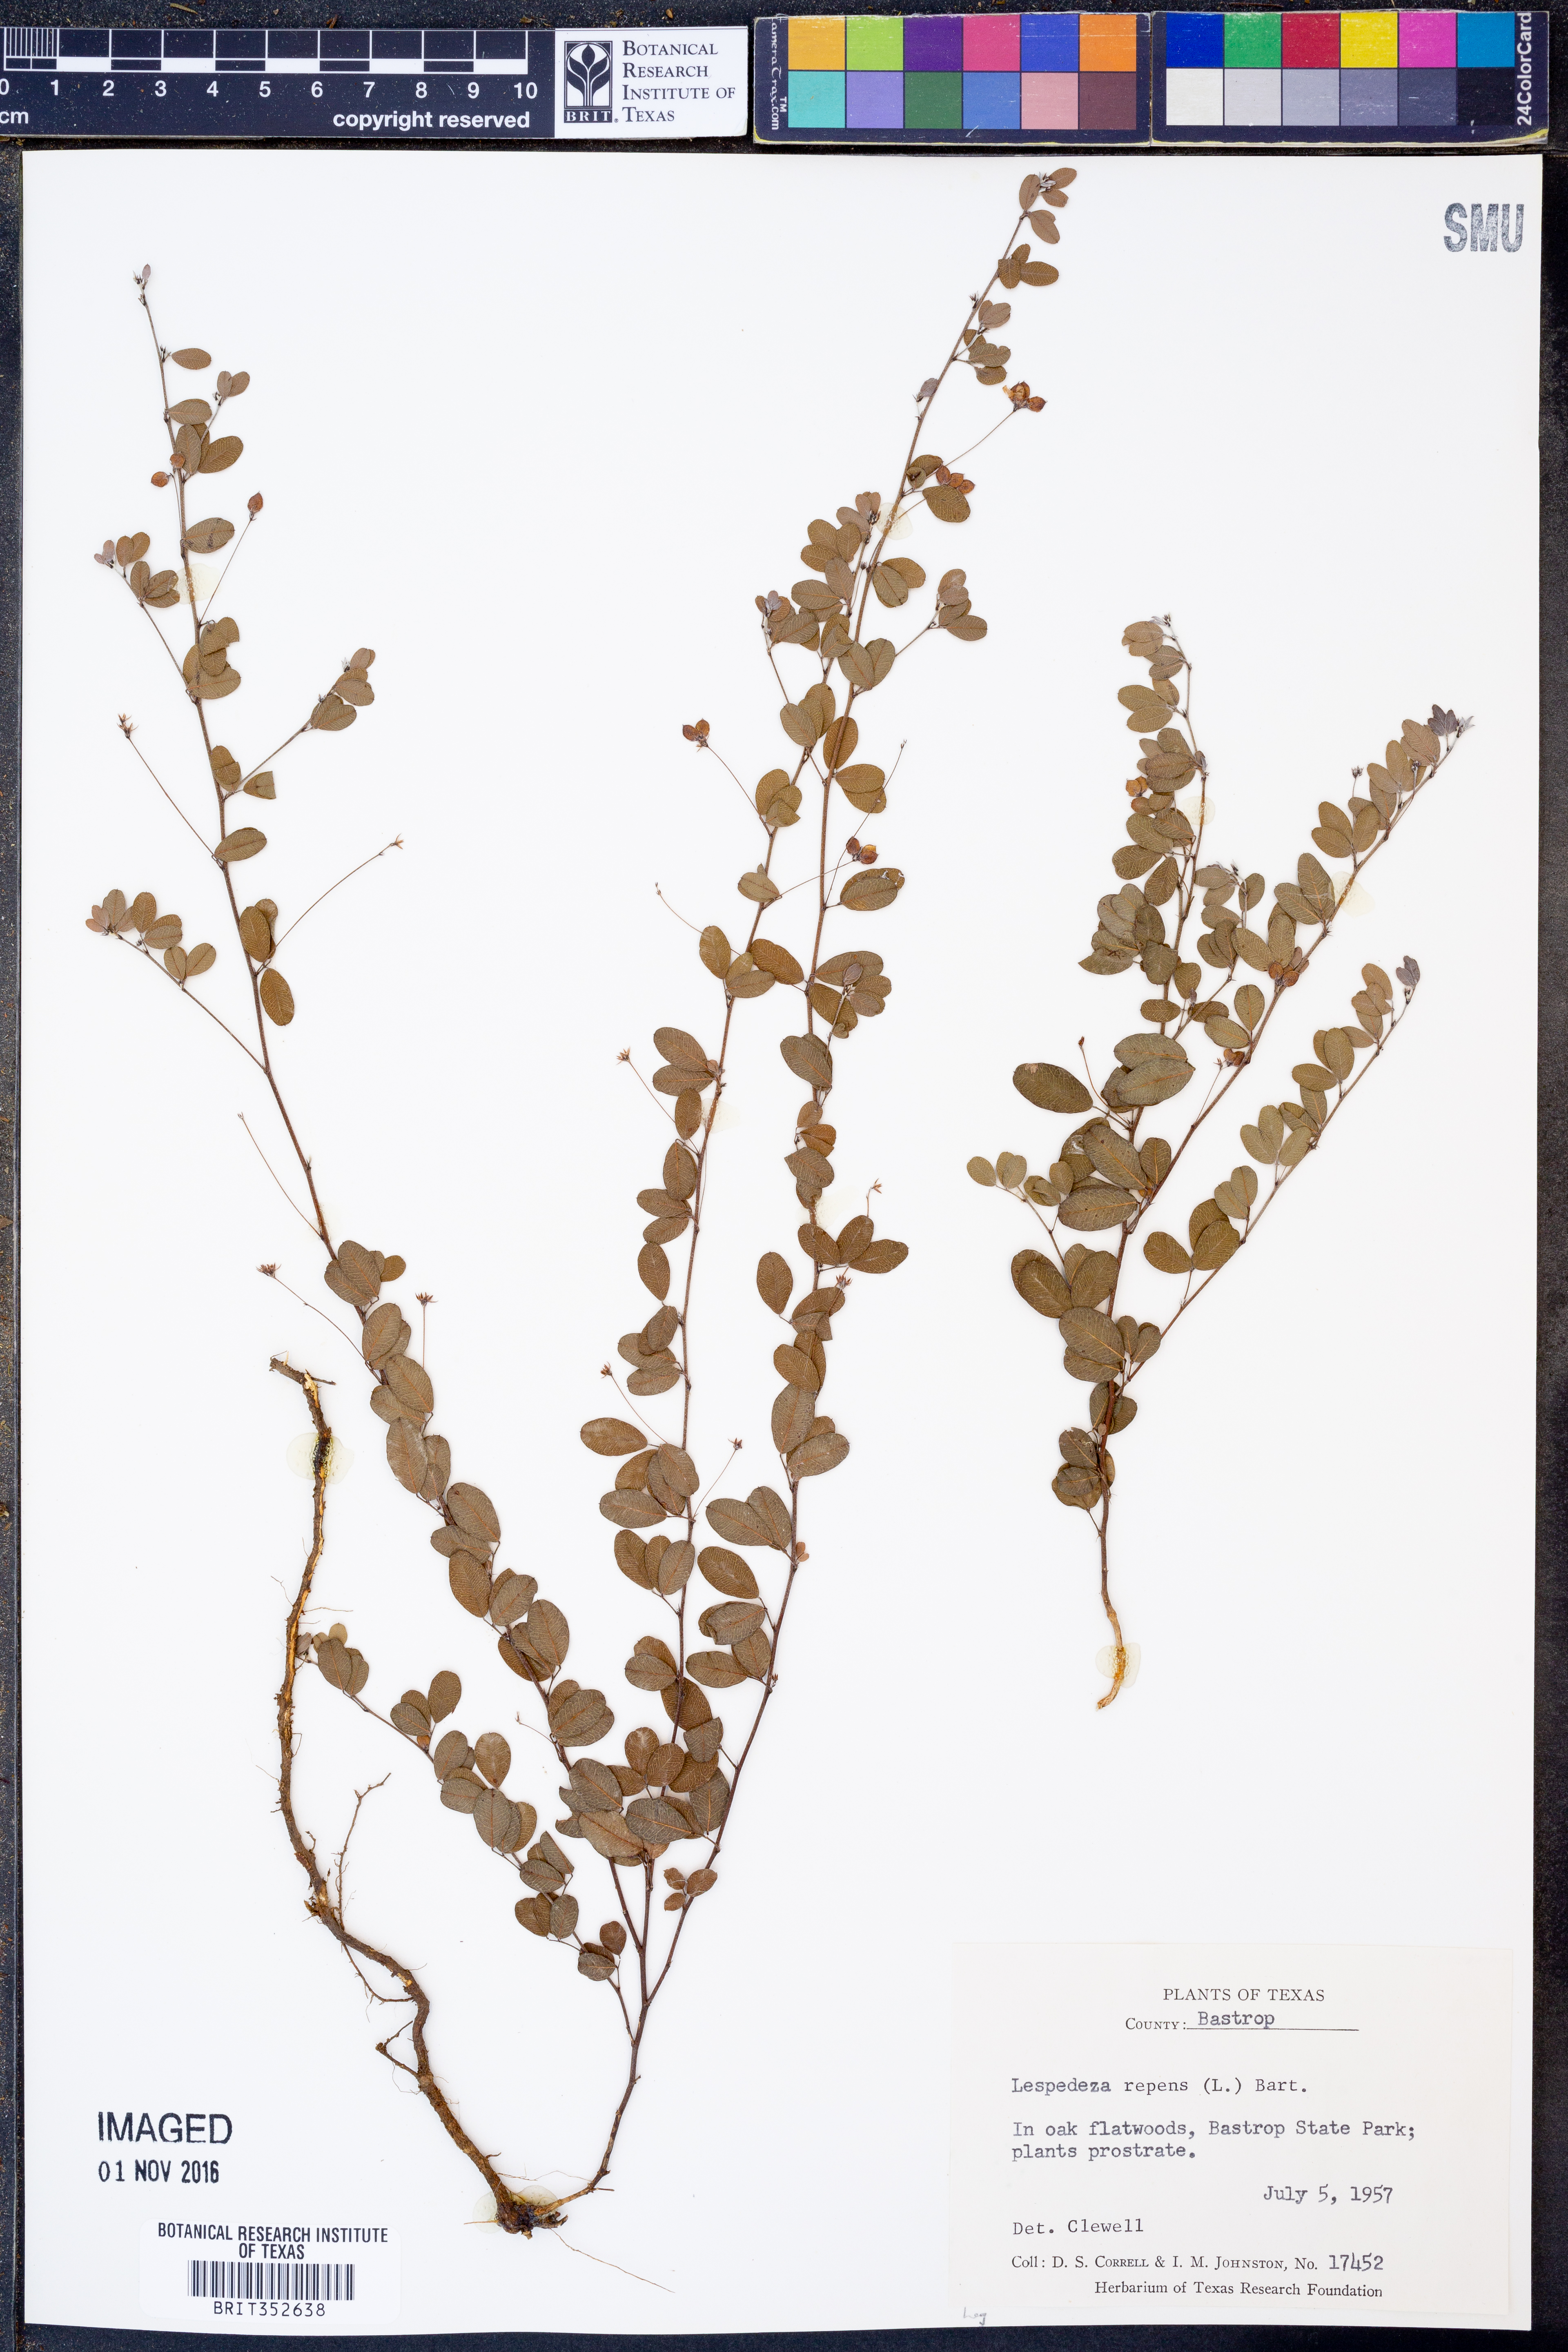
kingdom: Plantae
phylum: Tracheophyta
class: Magnoliopsida
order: Fabales
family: Fabaceae
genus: Lespedeza
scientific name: Lespedeza repens
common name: Creeping bush-clover
